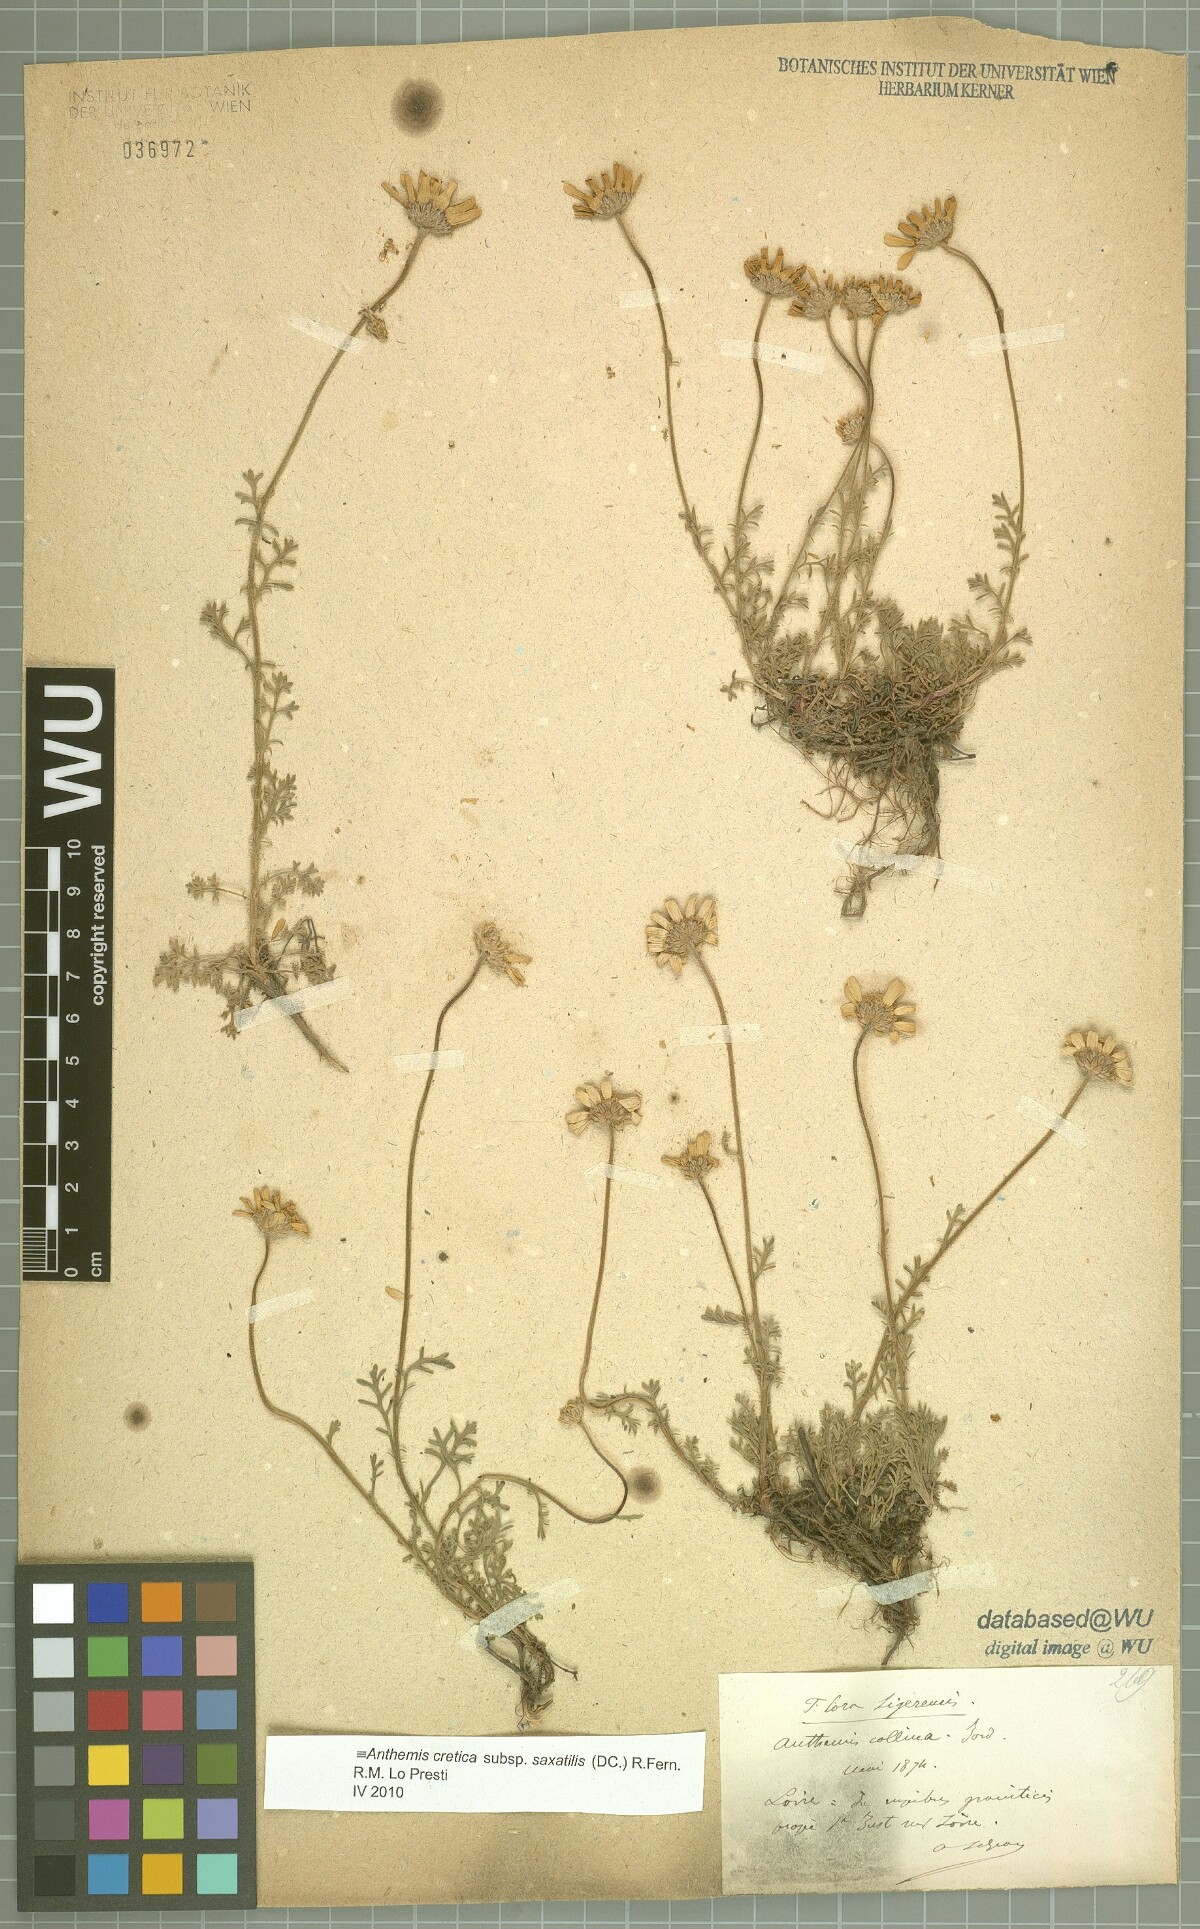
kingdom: Plantae
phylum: Tracheophyta
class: Magnoliopsida
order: Asterales
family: Asteraceae
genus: Anthemis
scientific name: Anthemis cretica
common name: Mountain dog-daisy
